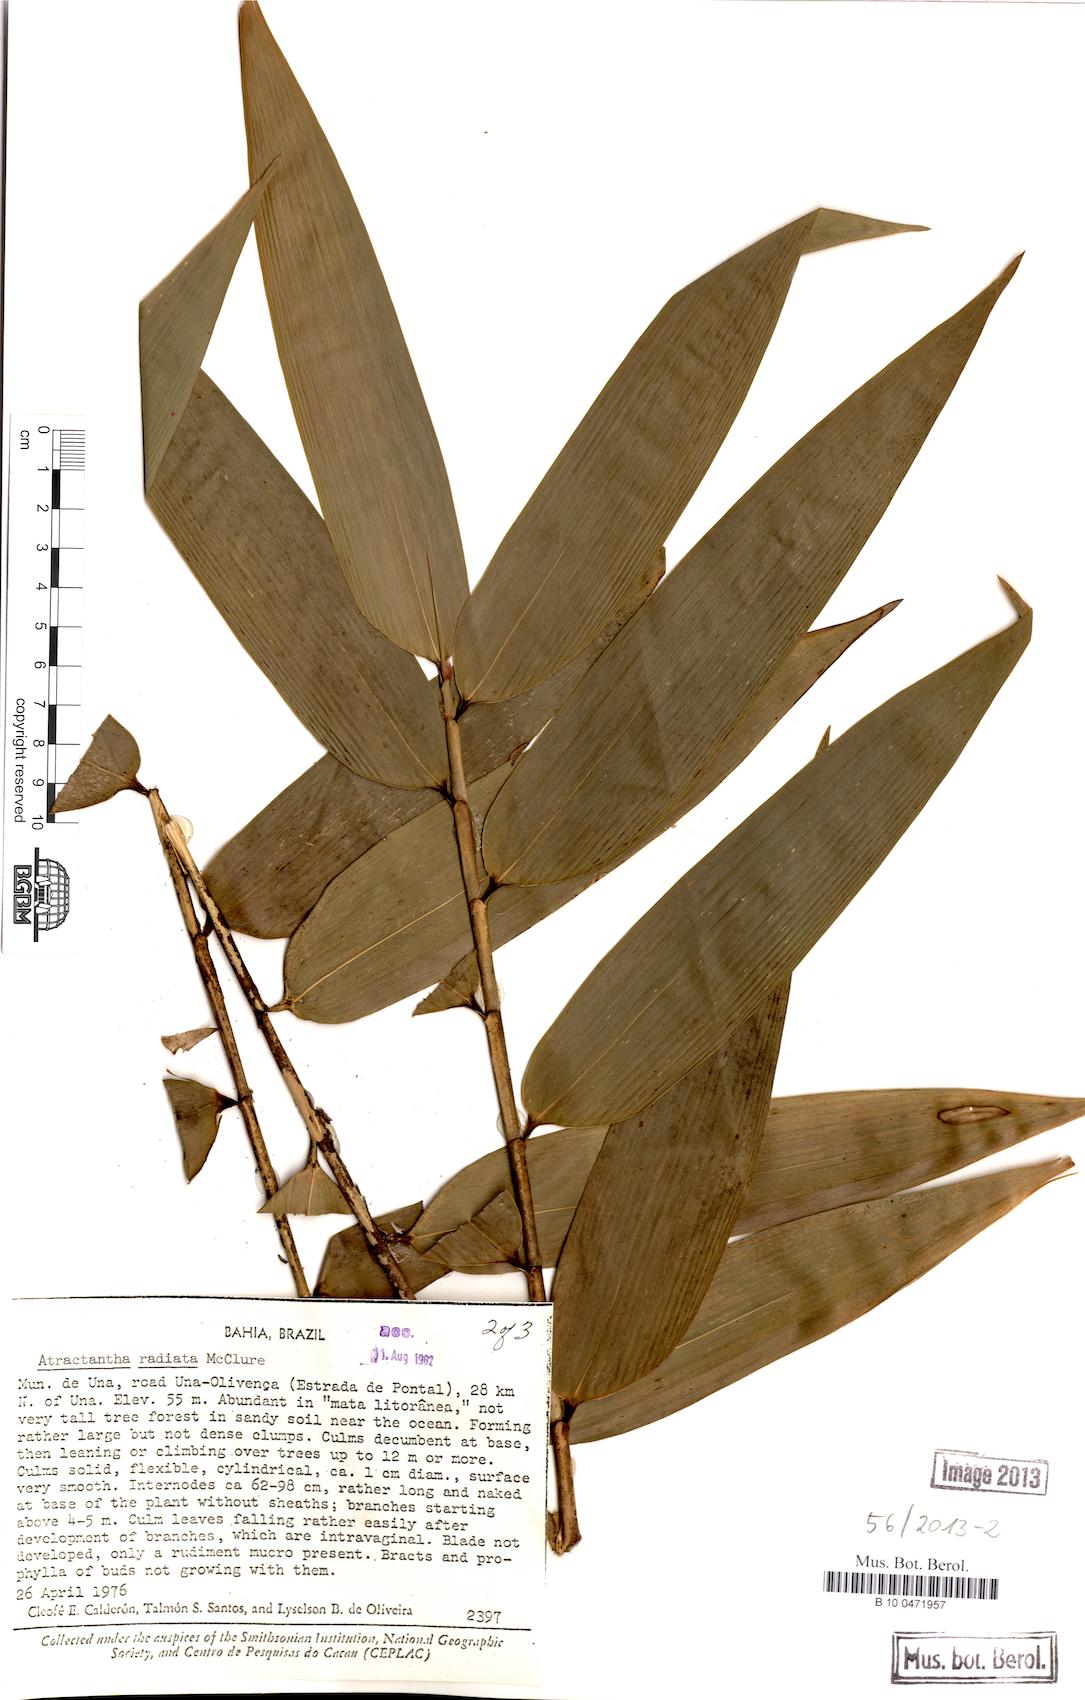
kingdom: Plantae
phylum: Tracheophyta
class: Liliopsida
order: Poales
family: Poaceae
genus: Atractantha
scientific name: Atractantha radiata
